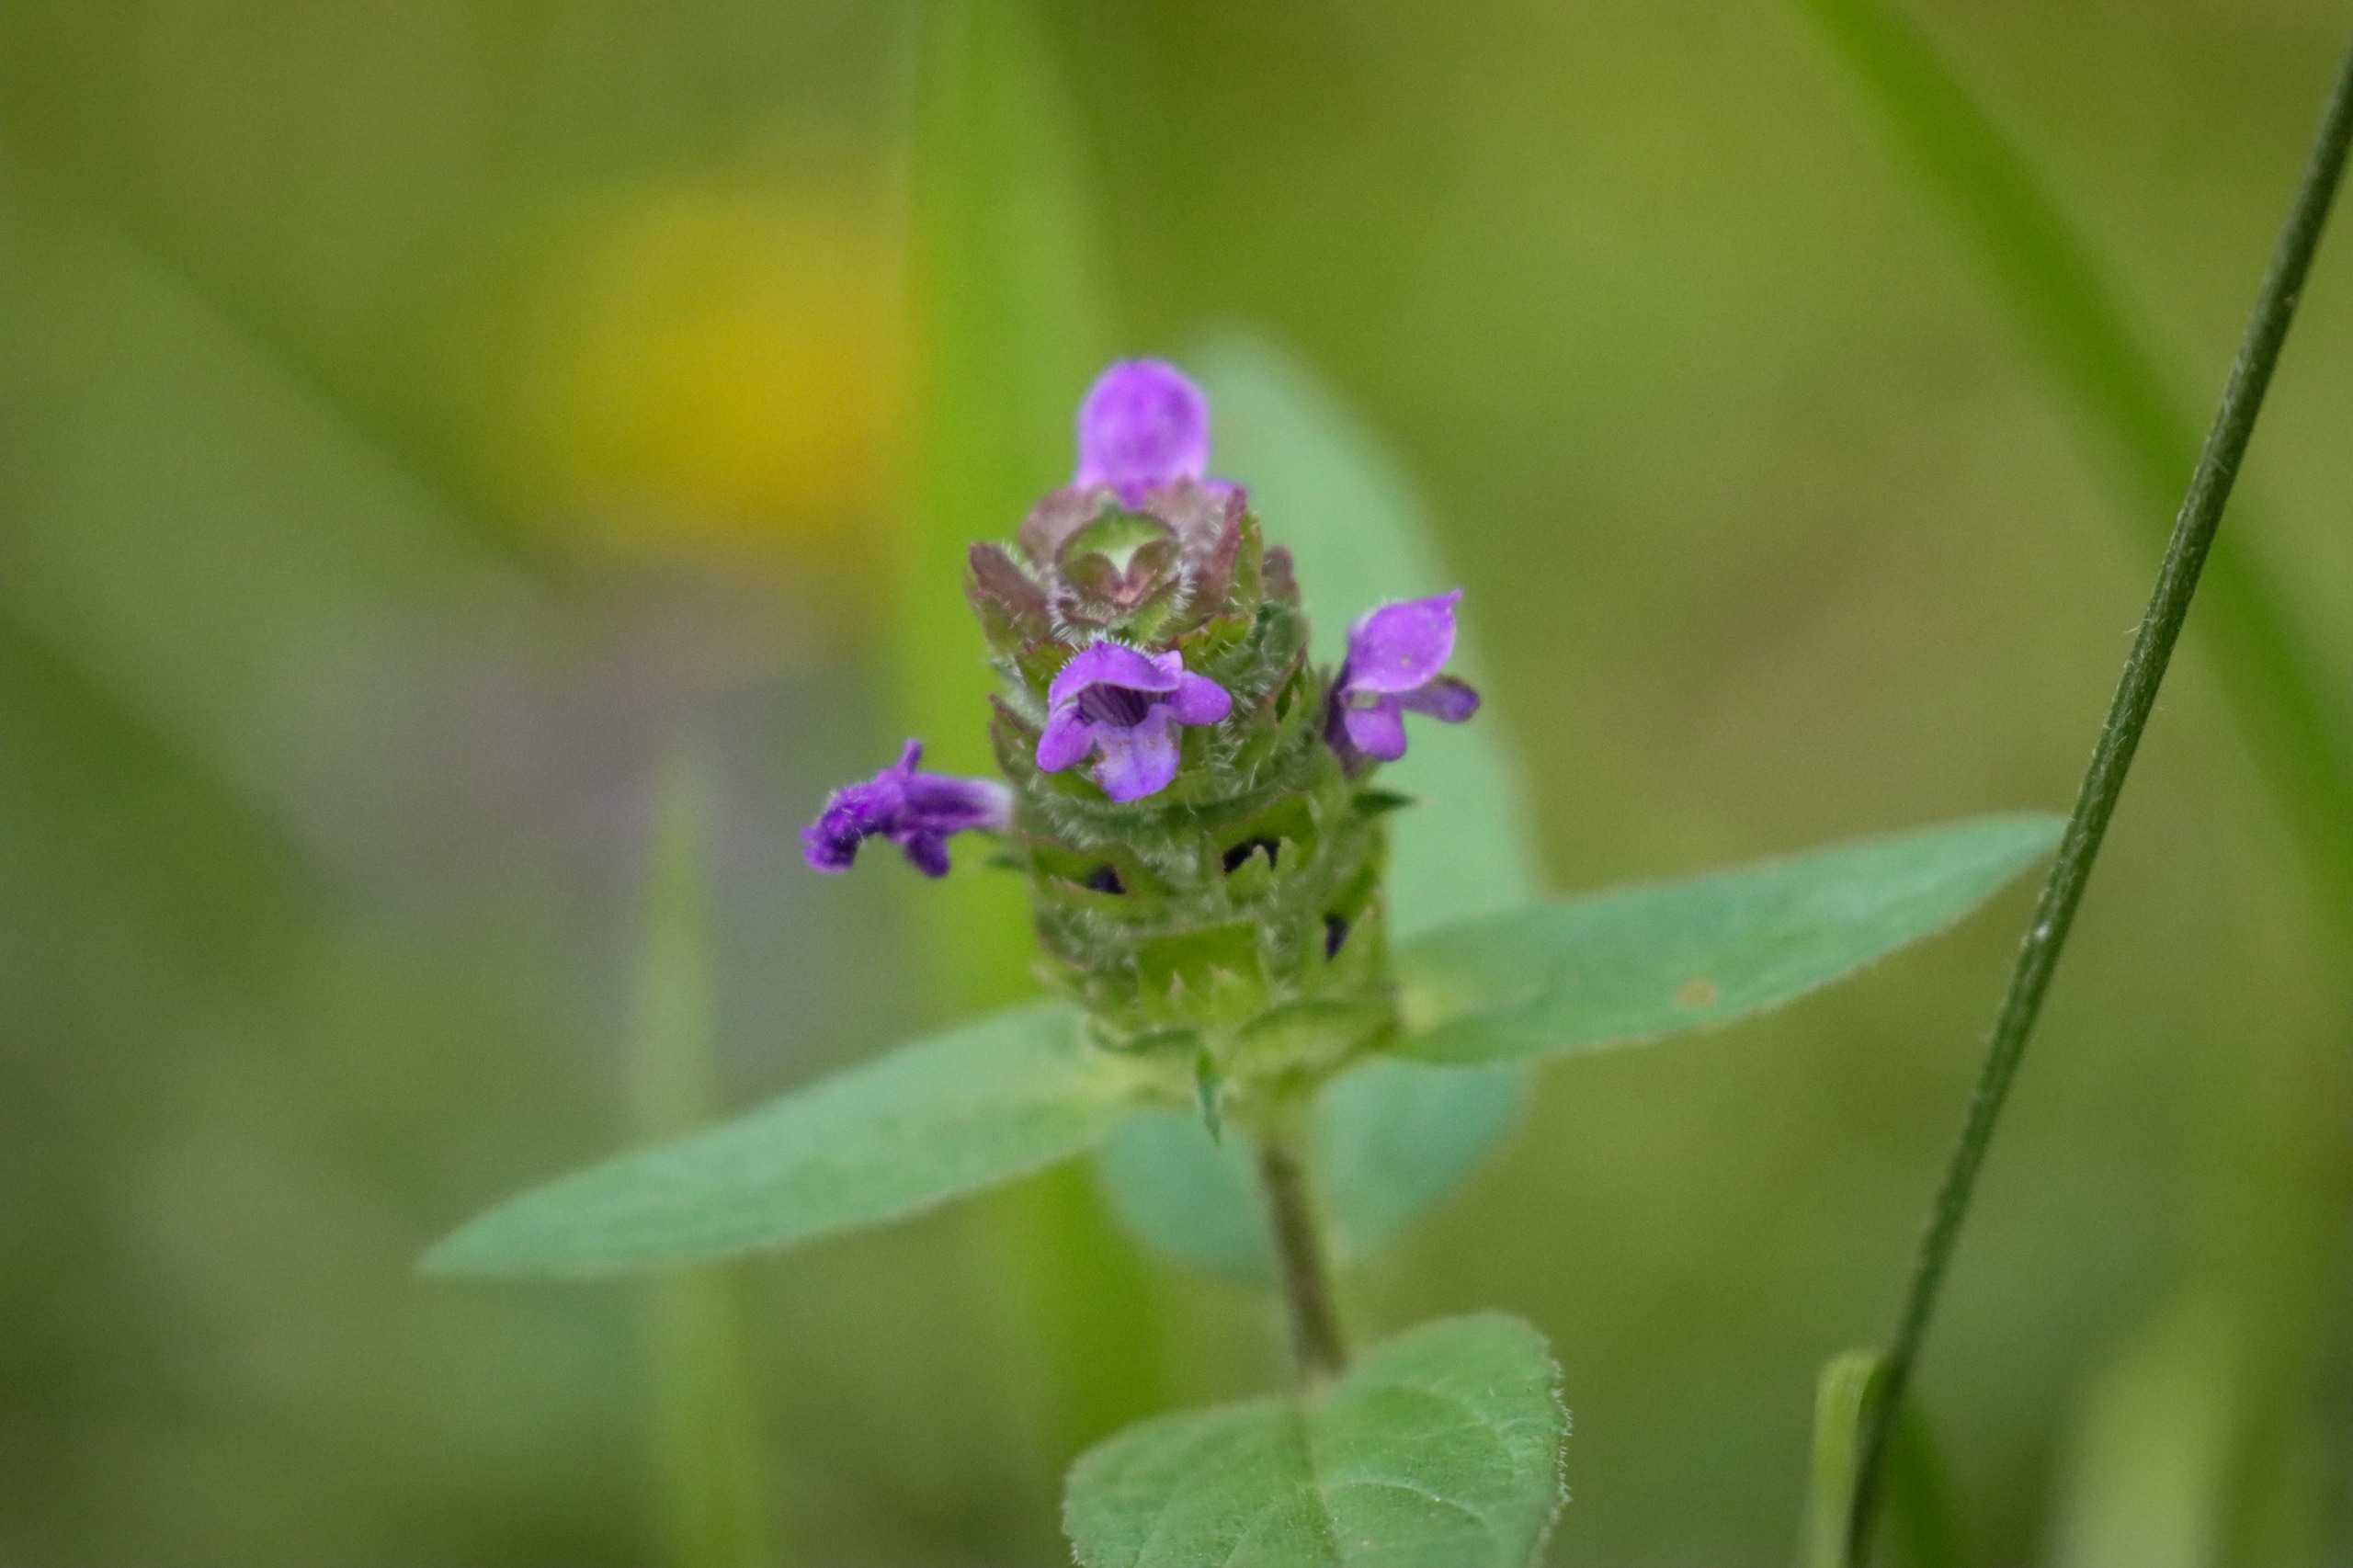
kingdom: Plantae
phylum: Tracheophyta
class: Magnoliopsida
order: Lamiales
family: Lamiaceae
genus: Prunella
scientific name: Prunella vulgaris
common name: Almindelig brunelle
